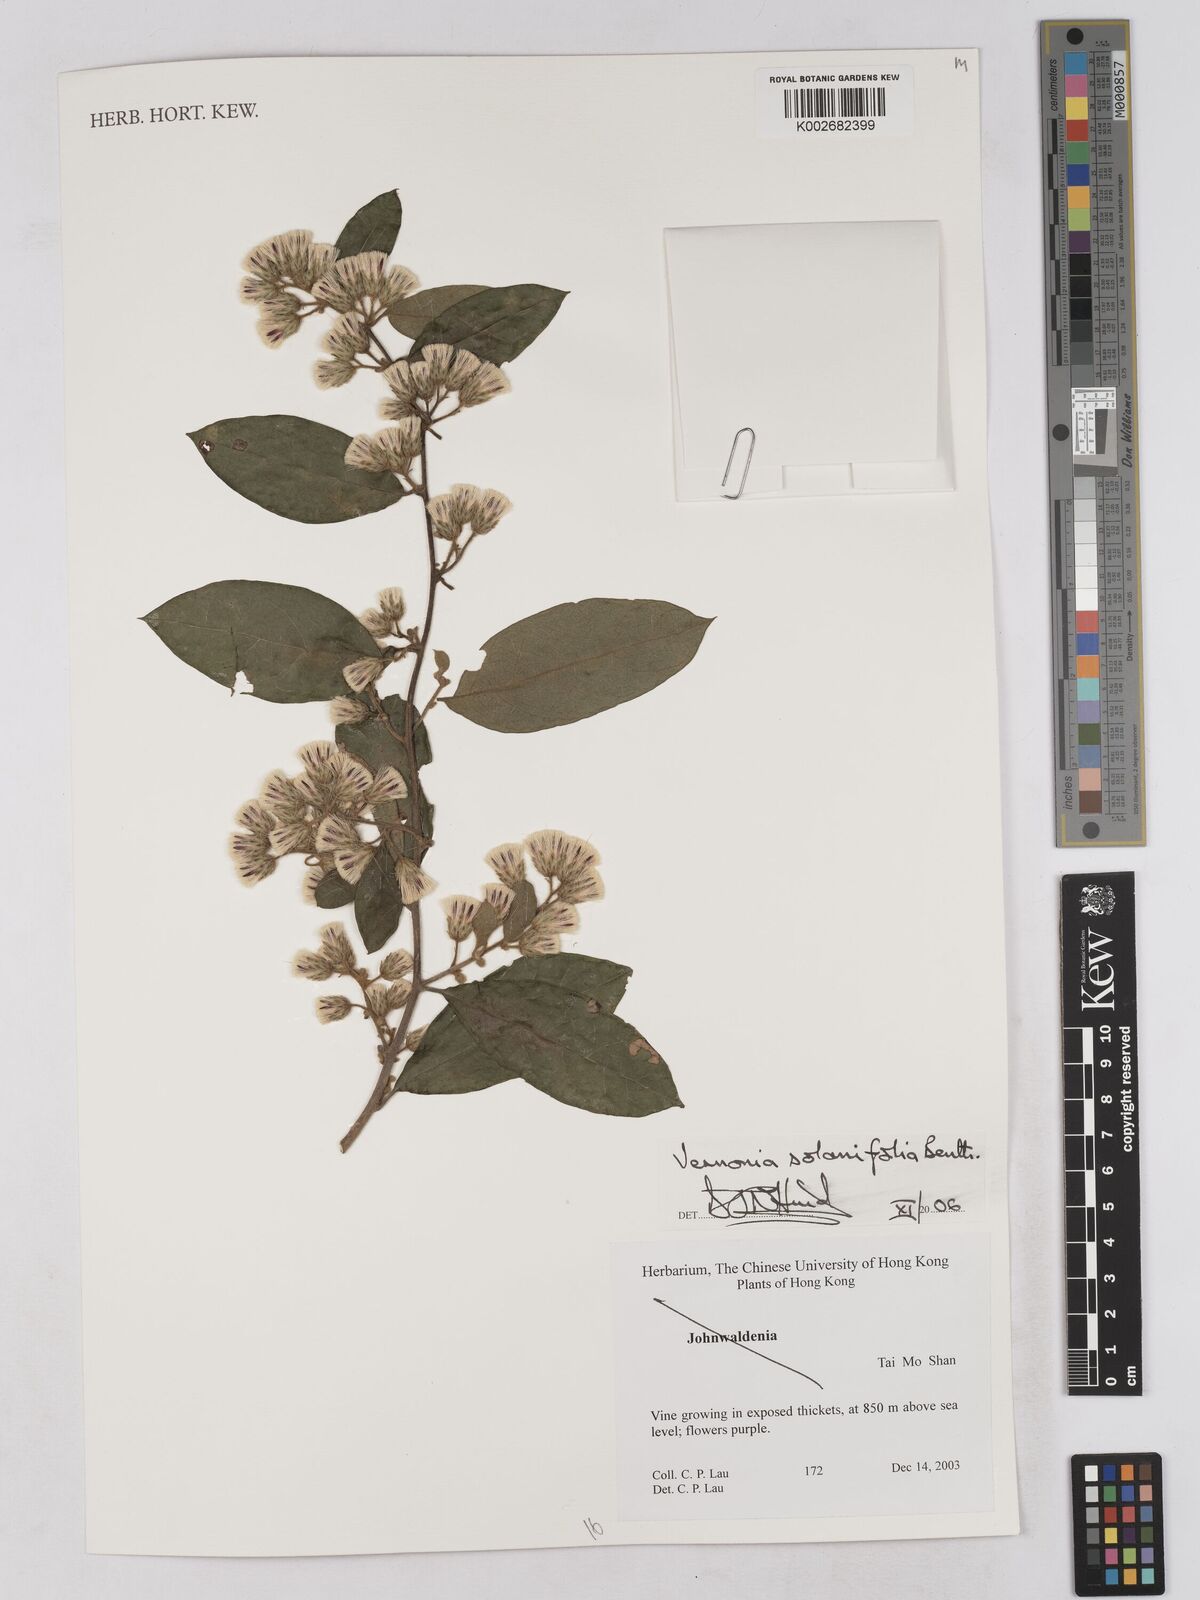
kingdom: Plantae
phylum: Tracheophyta
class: Magnoliopsida
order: Asterales
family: Asteraceae
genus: Strobocalyx
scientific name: Strobocalyx solanifolia
